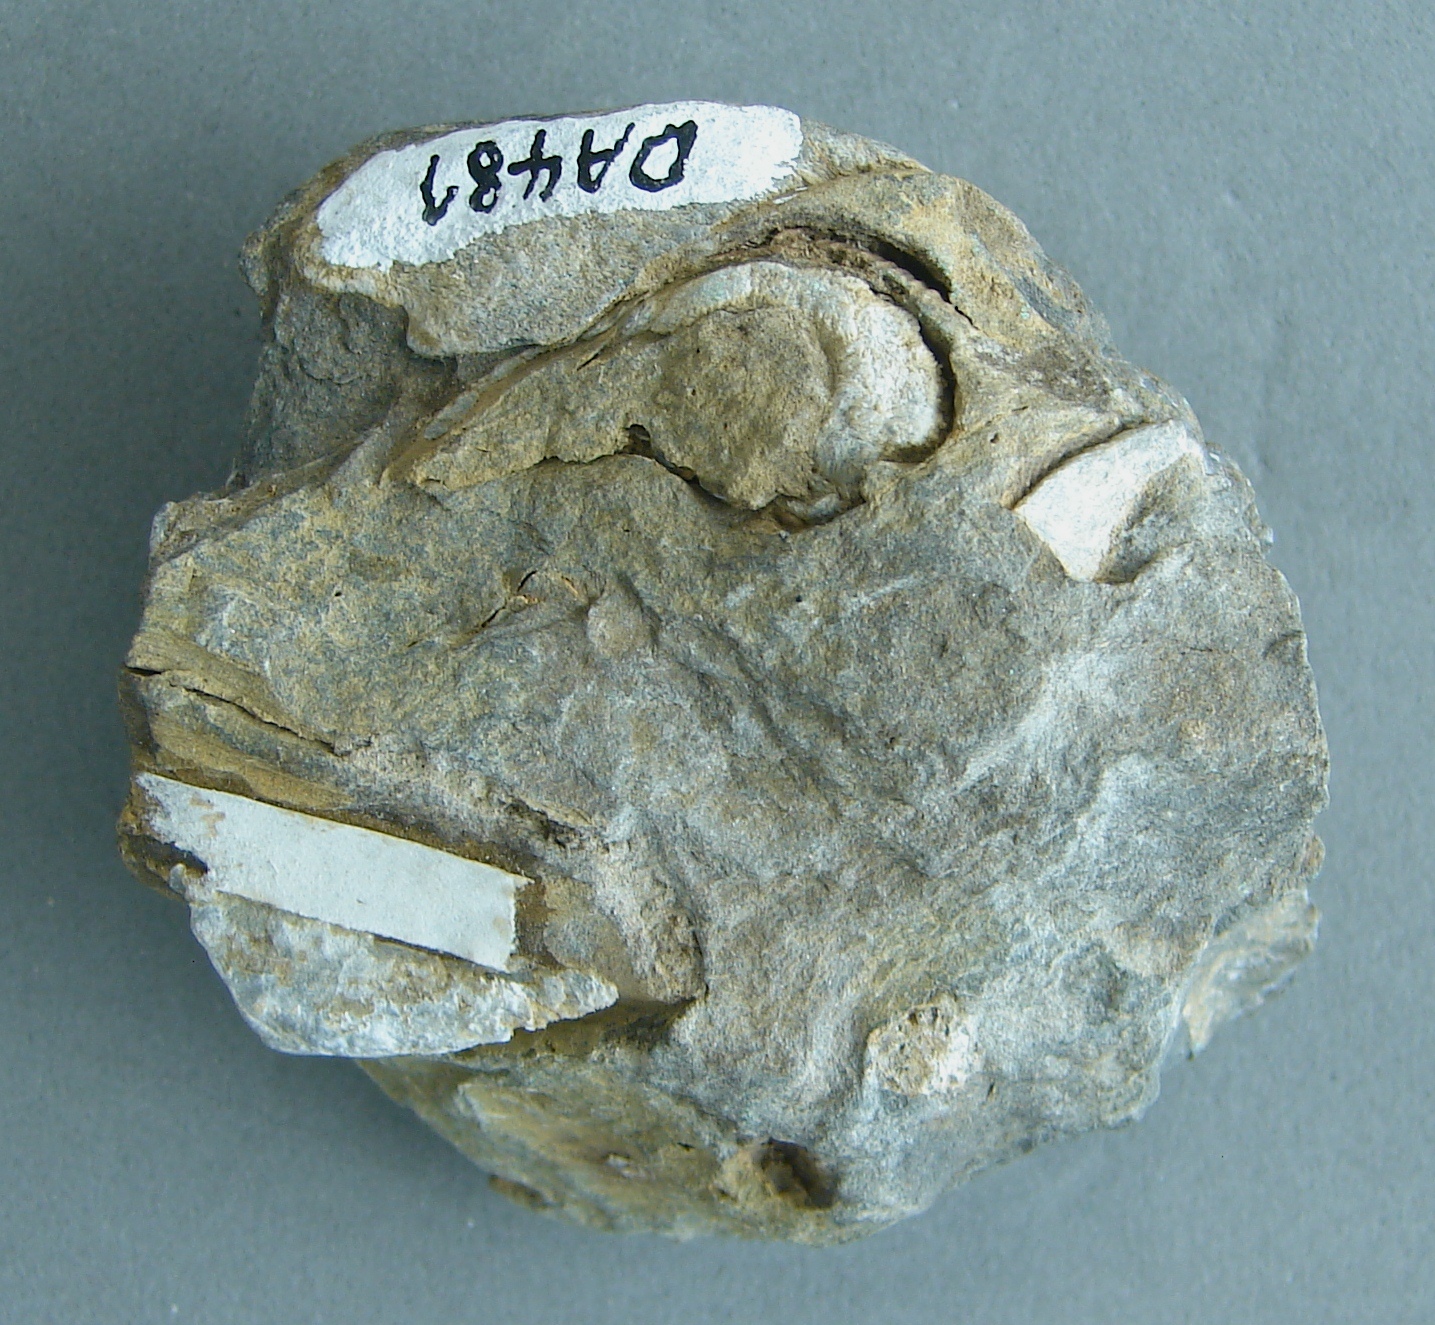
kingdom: Animalia
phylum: Brachiopoda
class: Rhynchonellata
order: Rhynchonellida
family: Rhynchonellidae
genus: Rhynchonella
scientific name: Rhynchonella
